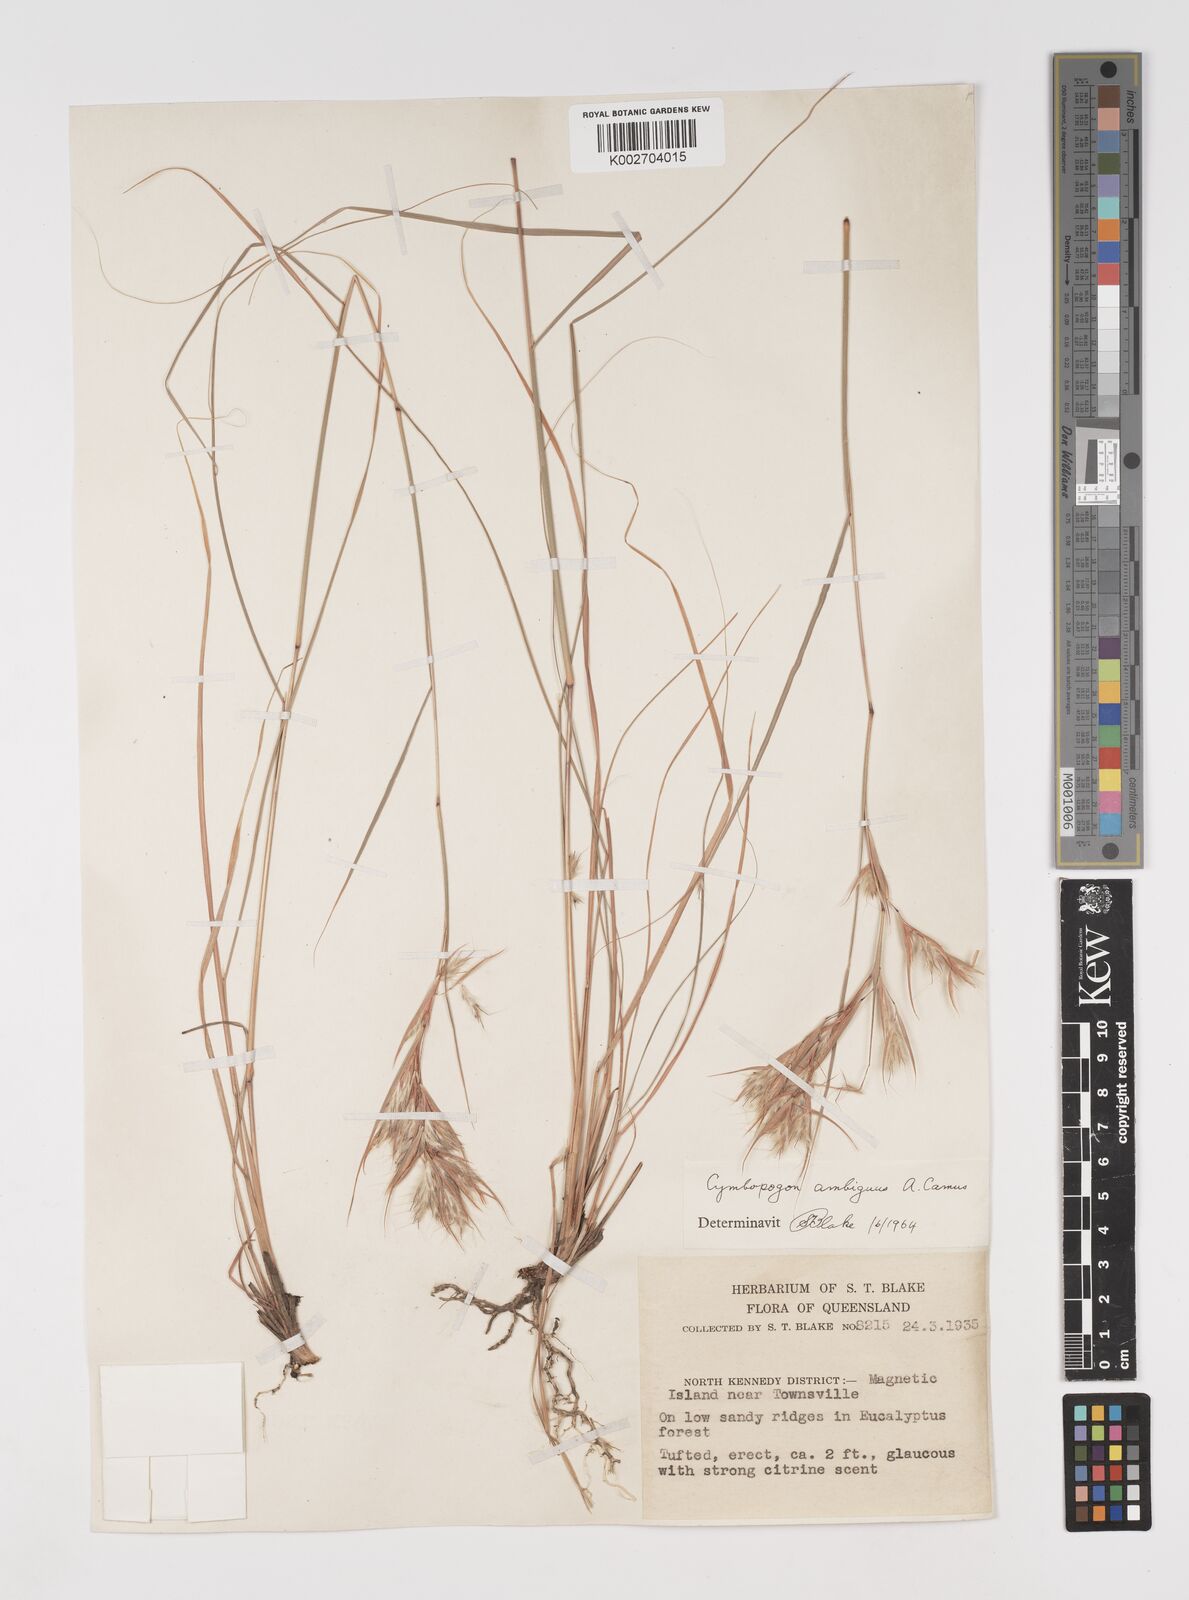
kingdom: Plantae
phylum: Tracheophyta
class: Liliopsida
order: Poales
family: Poaceae
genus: Cymbopogon
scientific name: Cymbopogon ambiguus
